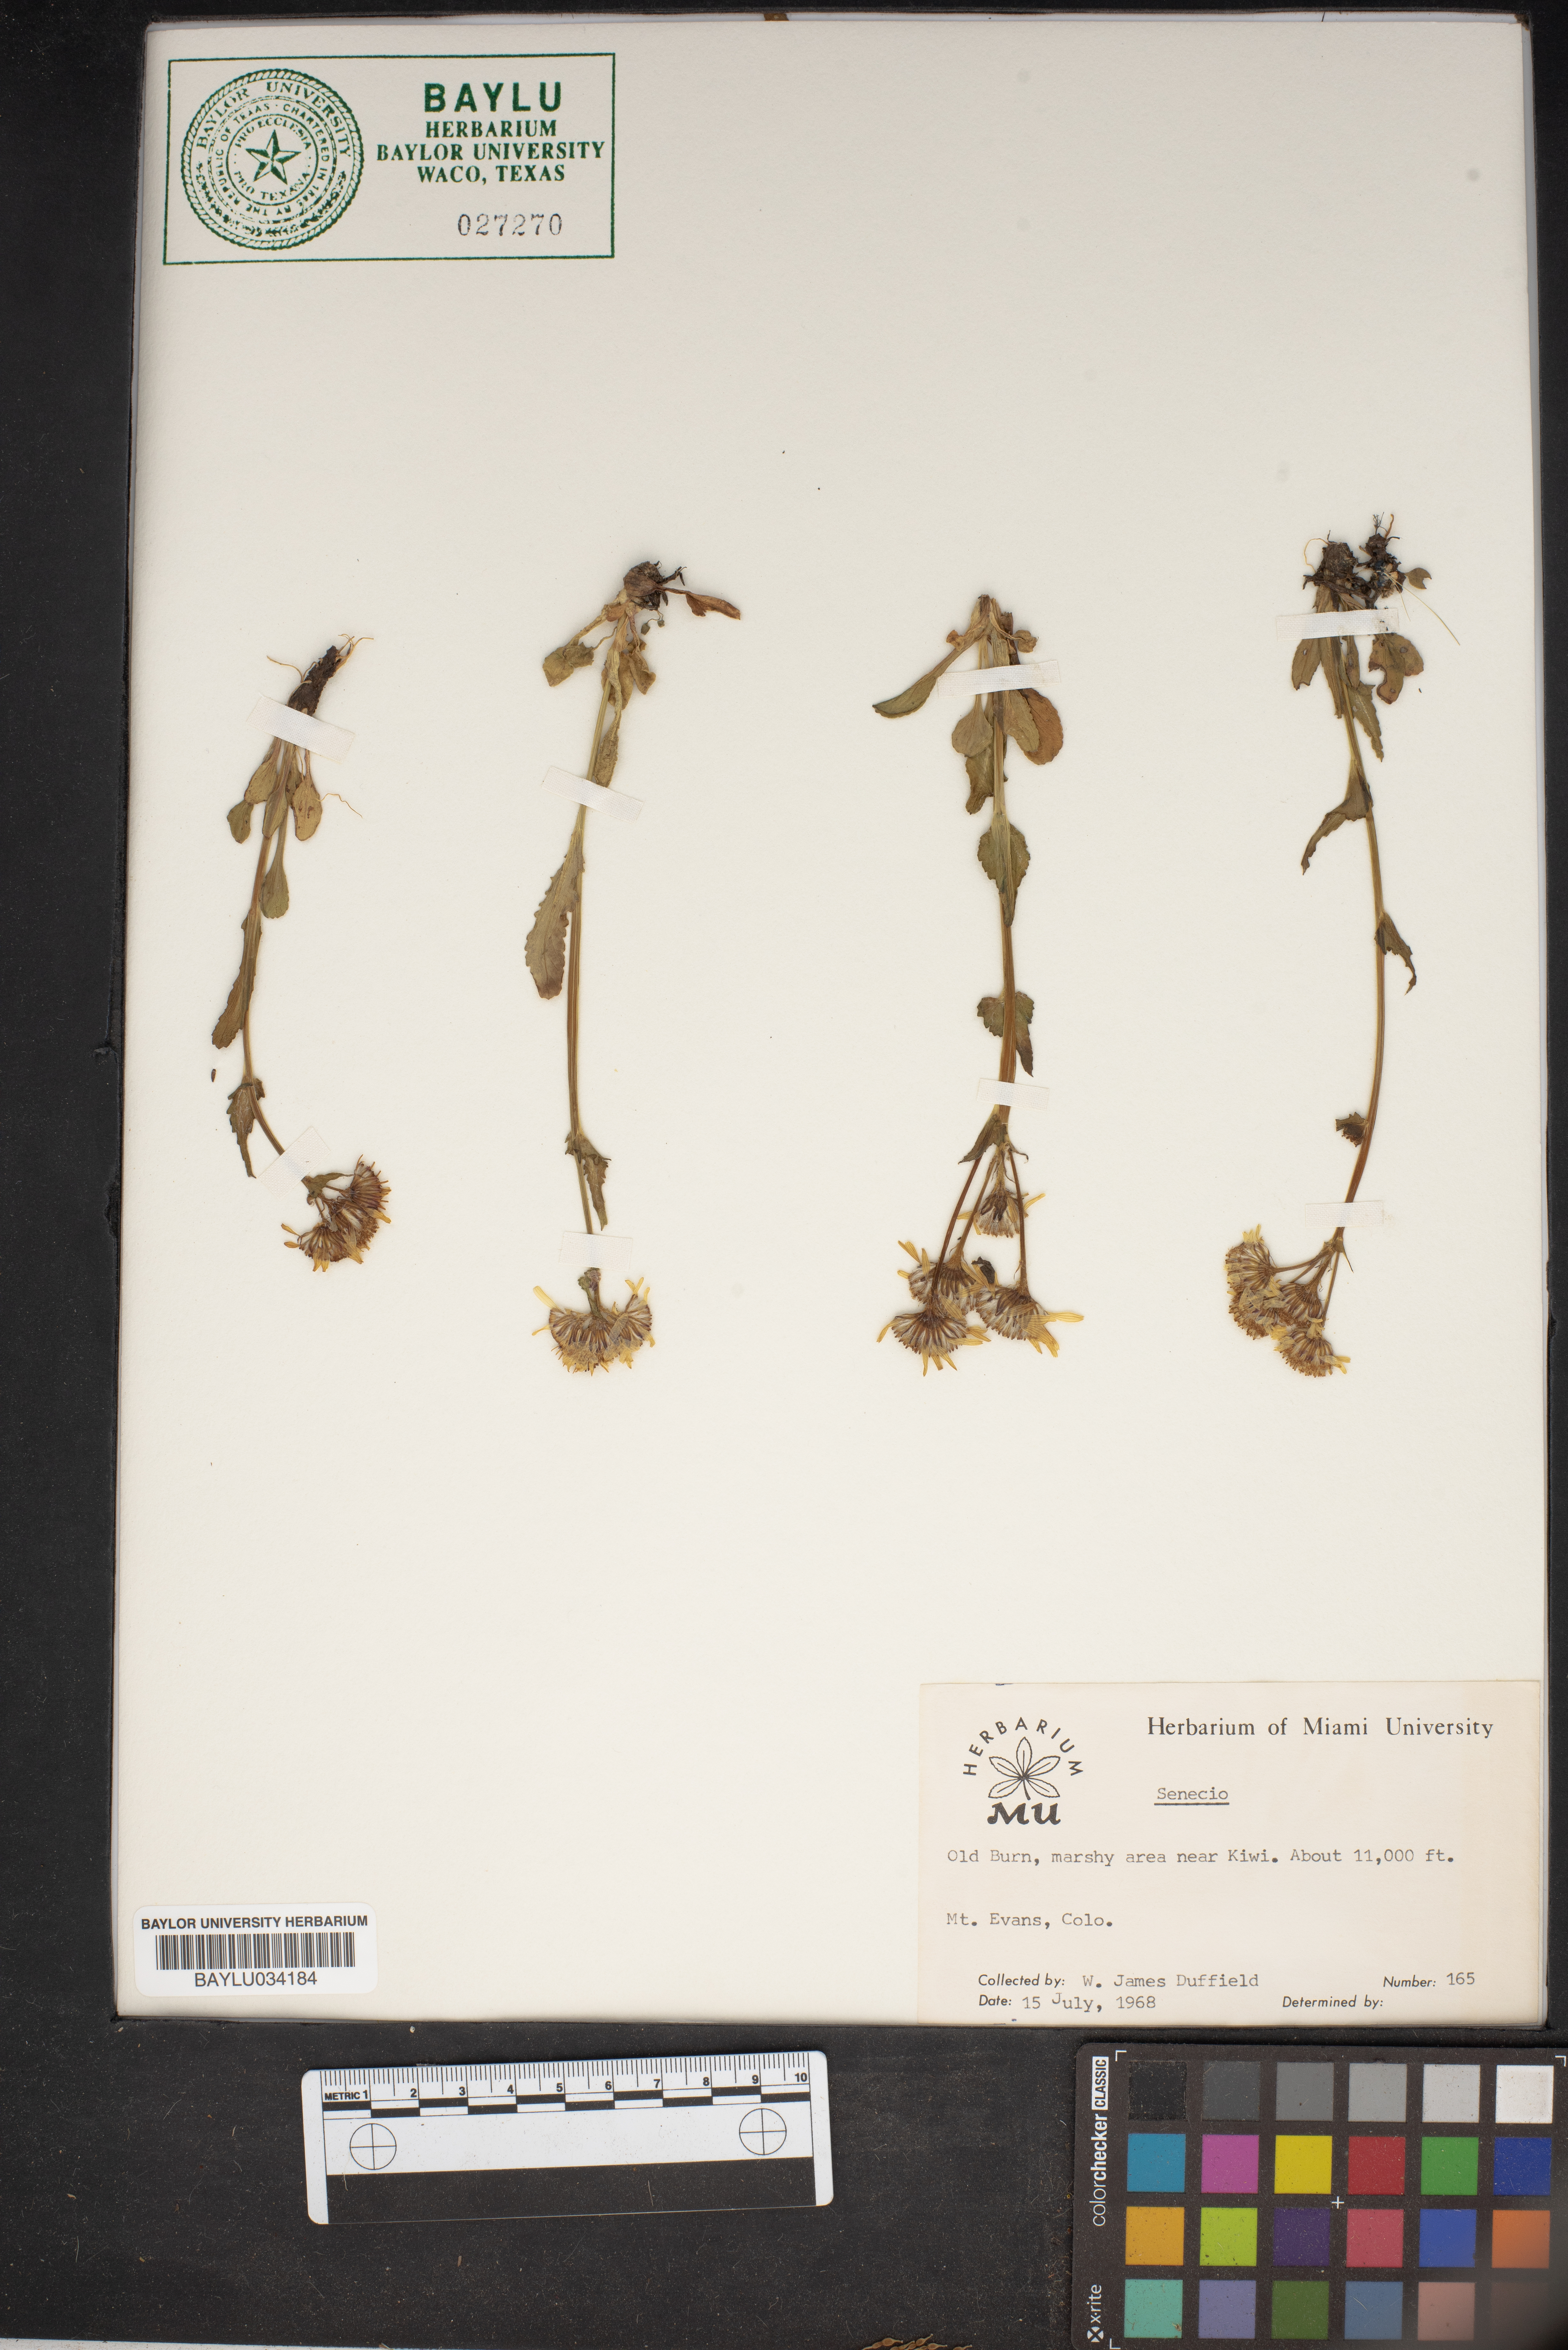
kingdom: Plantae
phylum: Tracheophyta
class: Magnoliopsida
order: Asterales
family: Asteraceae
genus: Senecio
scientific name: Senecio
